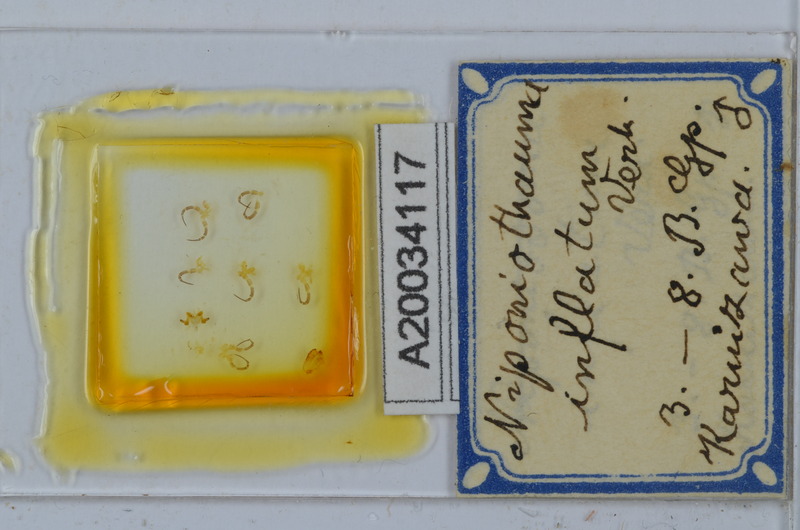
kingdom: Animalia
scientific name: Animalia
